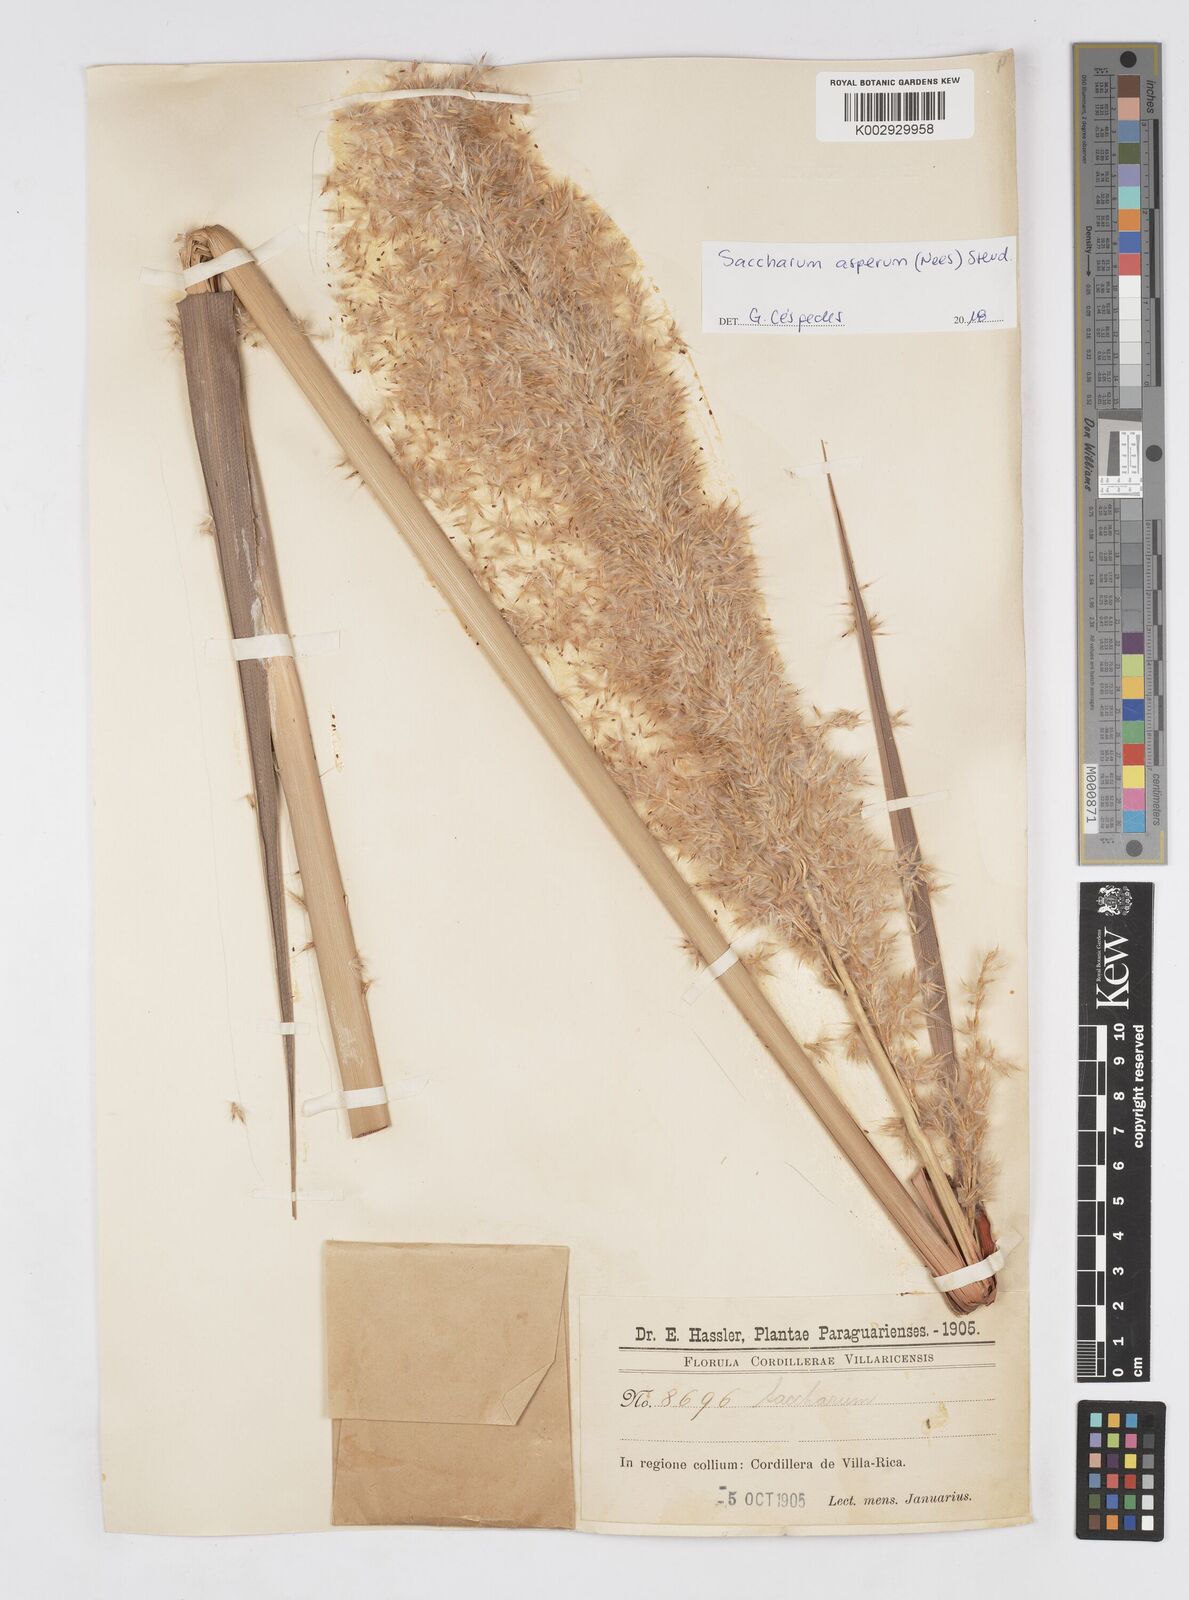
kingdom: Plantae
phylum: Tracheophyta
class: Liliopsida
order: Poales
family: Poaceae
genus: Erianthus
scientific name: Erianthus asper
